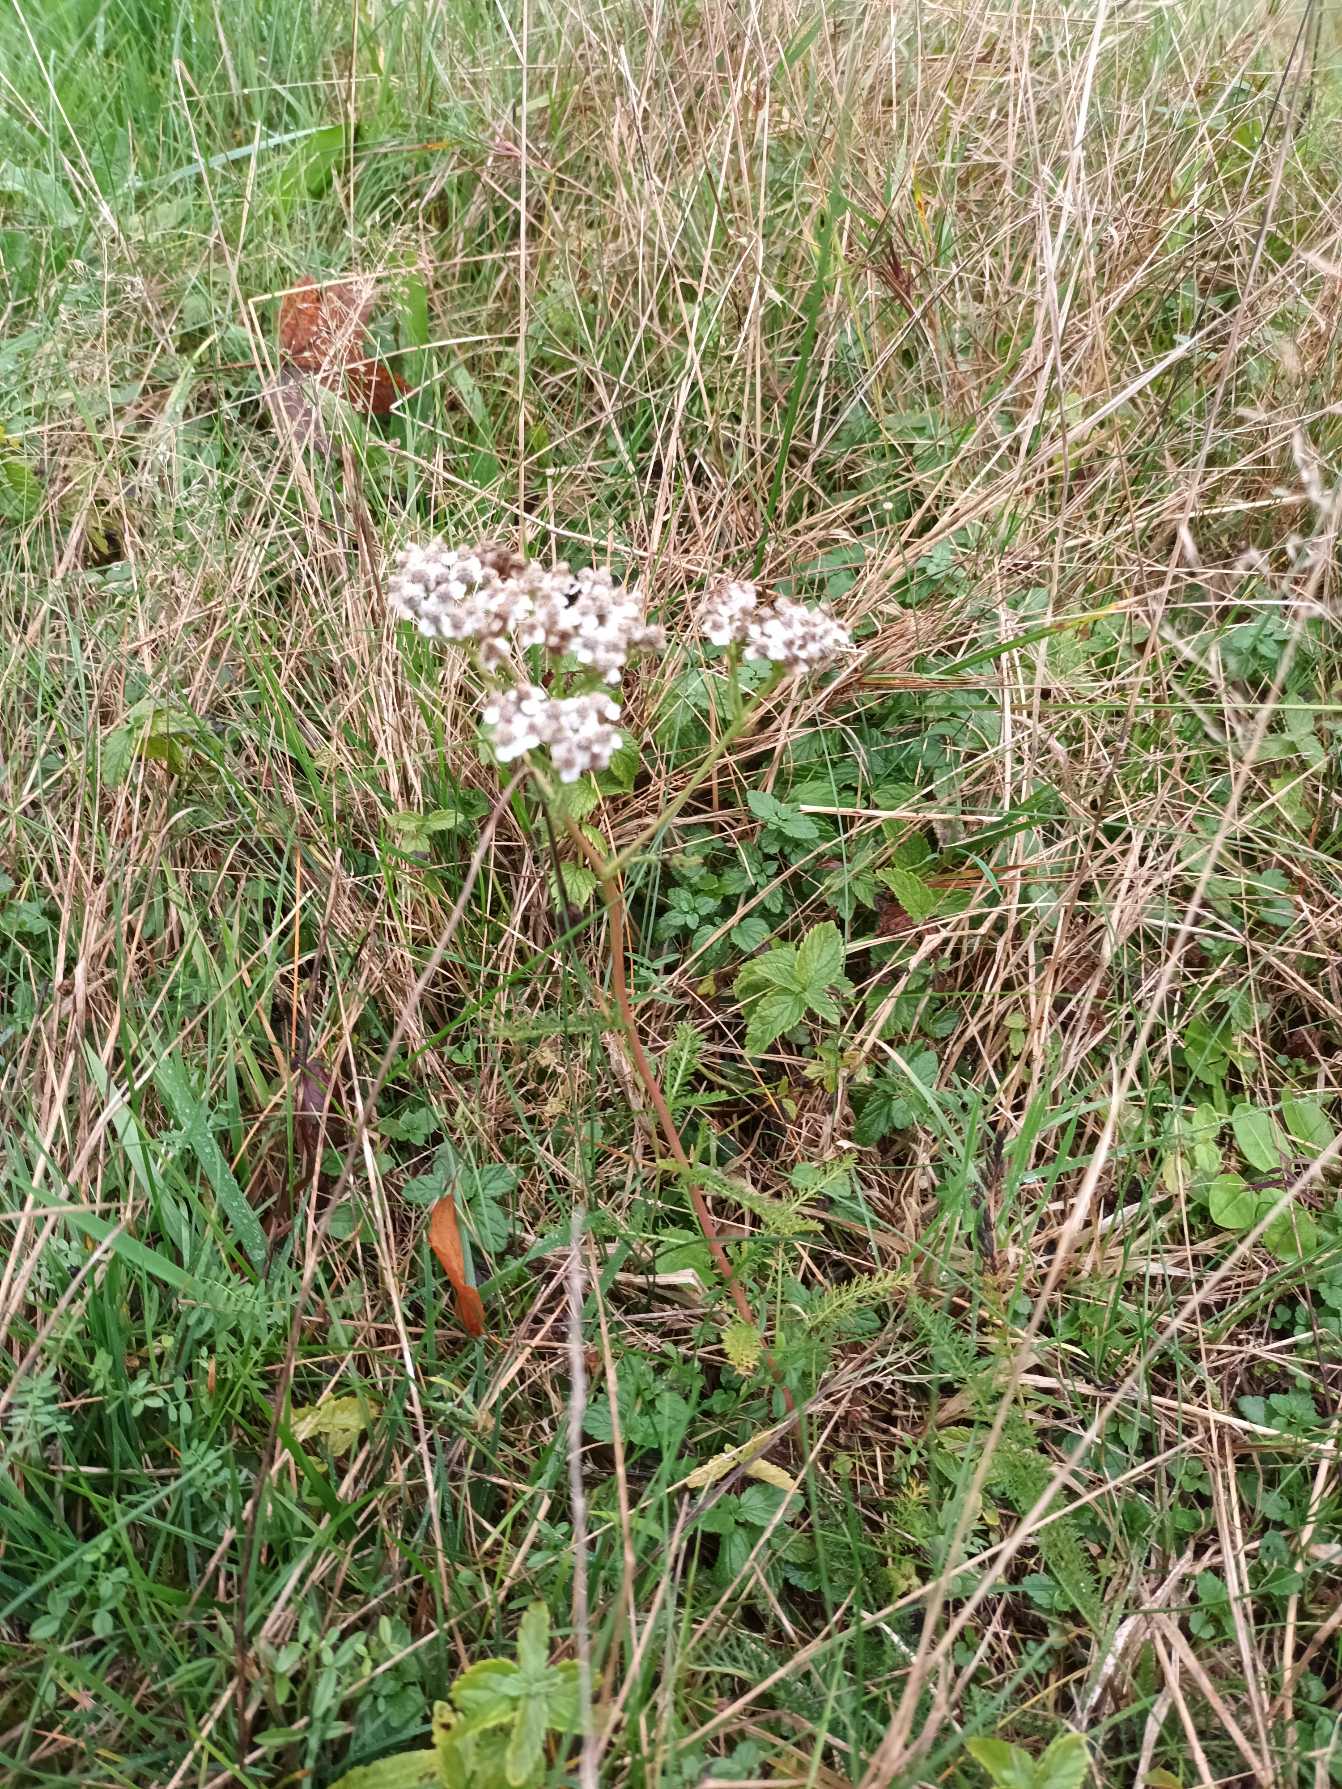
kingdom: Plantae
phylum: Tracheophyta
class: Magnoliopsida
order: Asterales
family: Asteraceae
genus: Achillea
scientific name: Achillea millefolium
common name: Almindelig røllike
